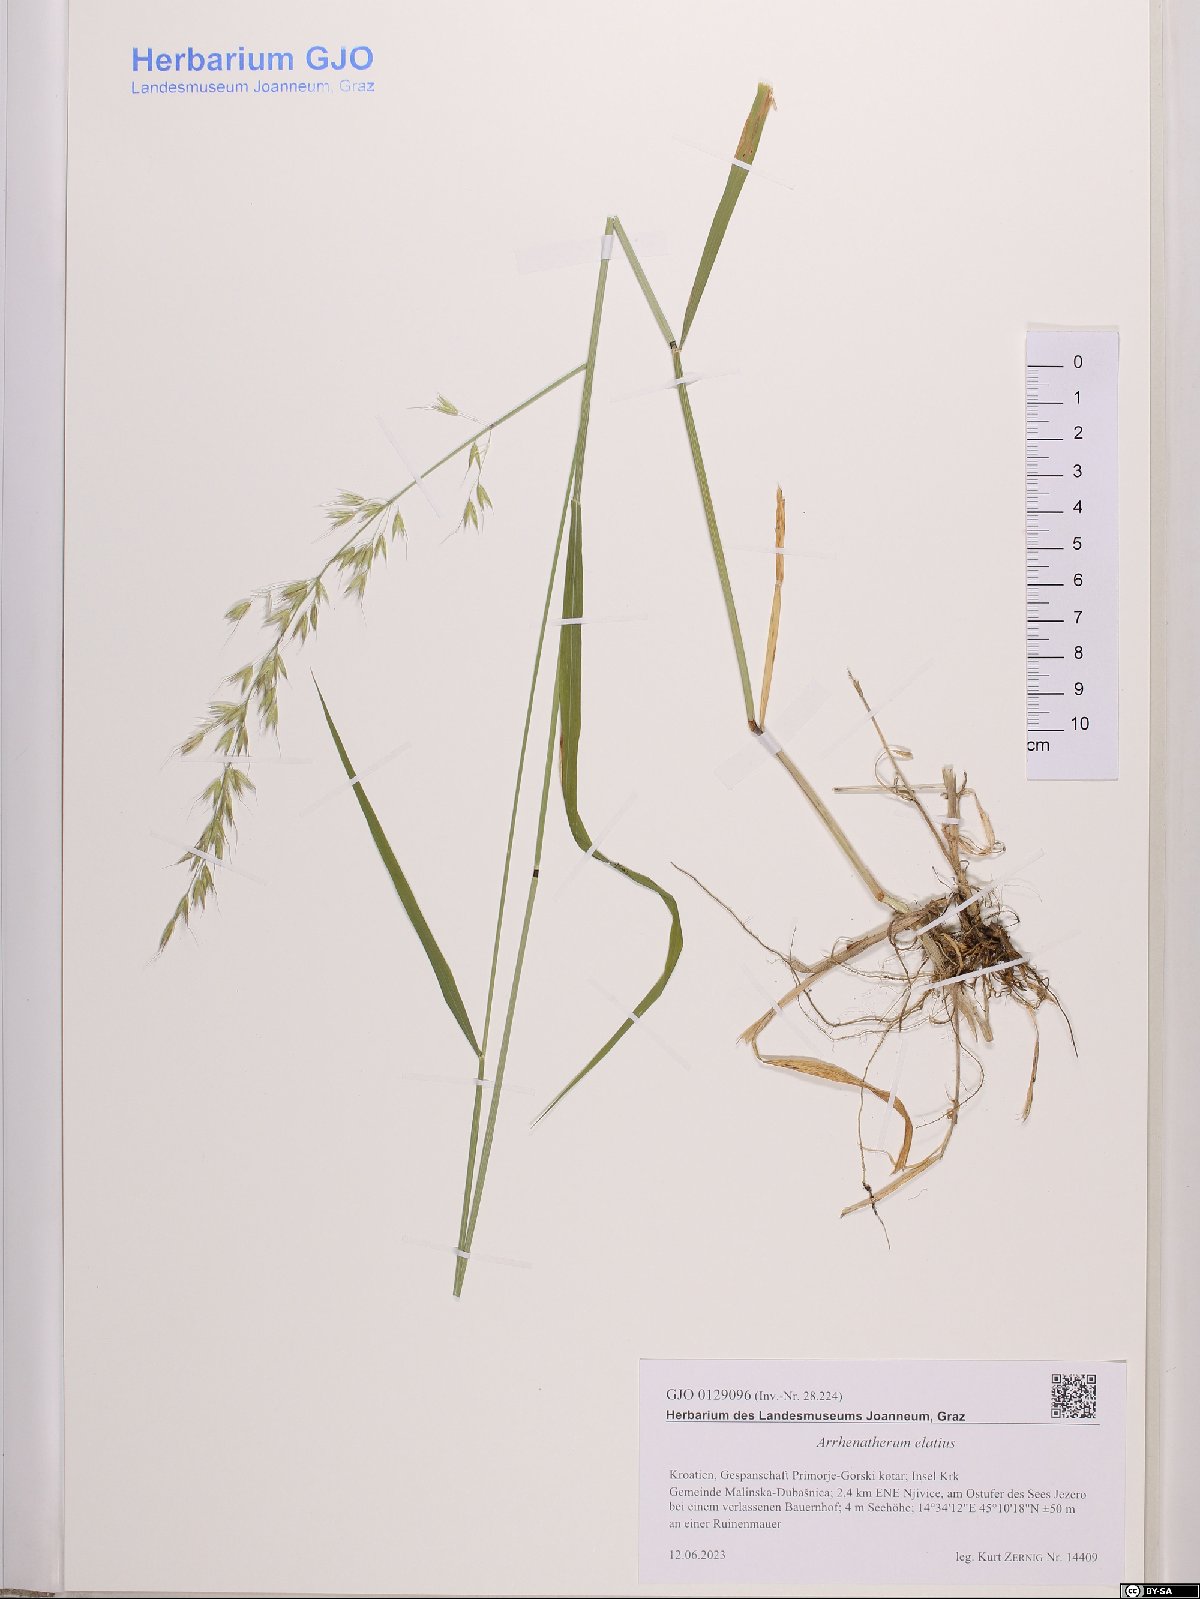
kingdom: Plantae
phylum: Tracheophyta
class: Liliopsida
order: Poales
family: Poaceae
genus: Arrhenatherum
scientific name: Arrhenatherum elatius
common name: Tall oatgrass
